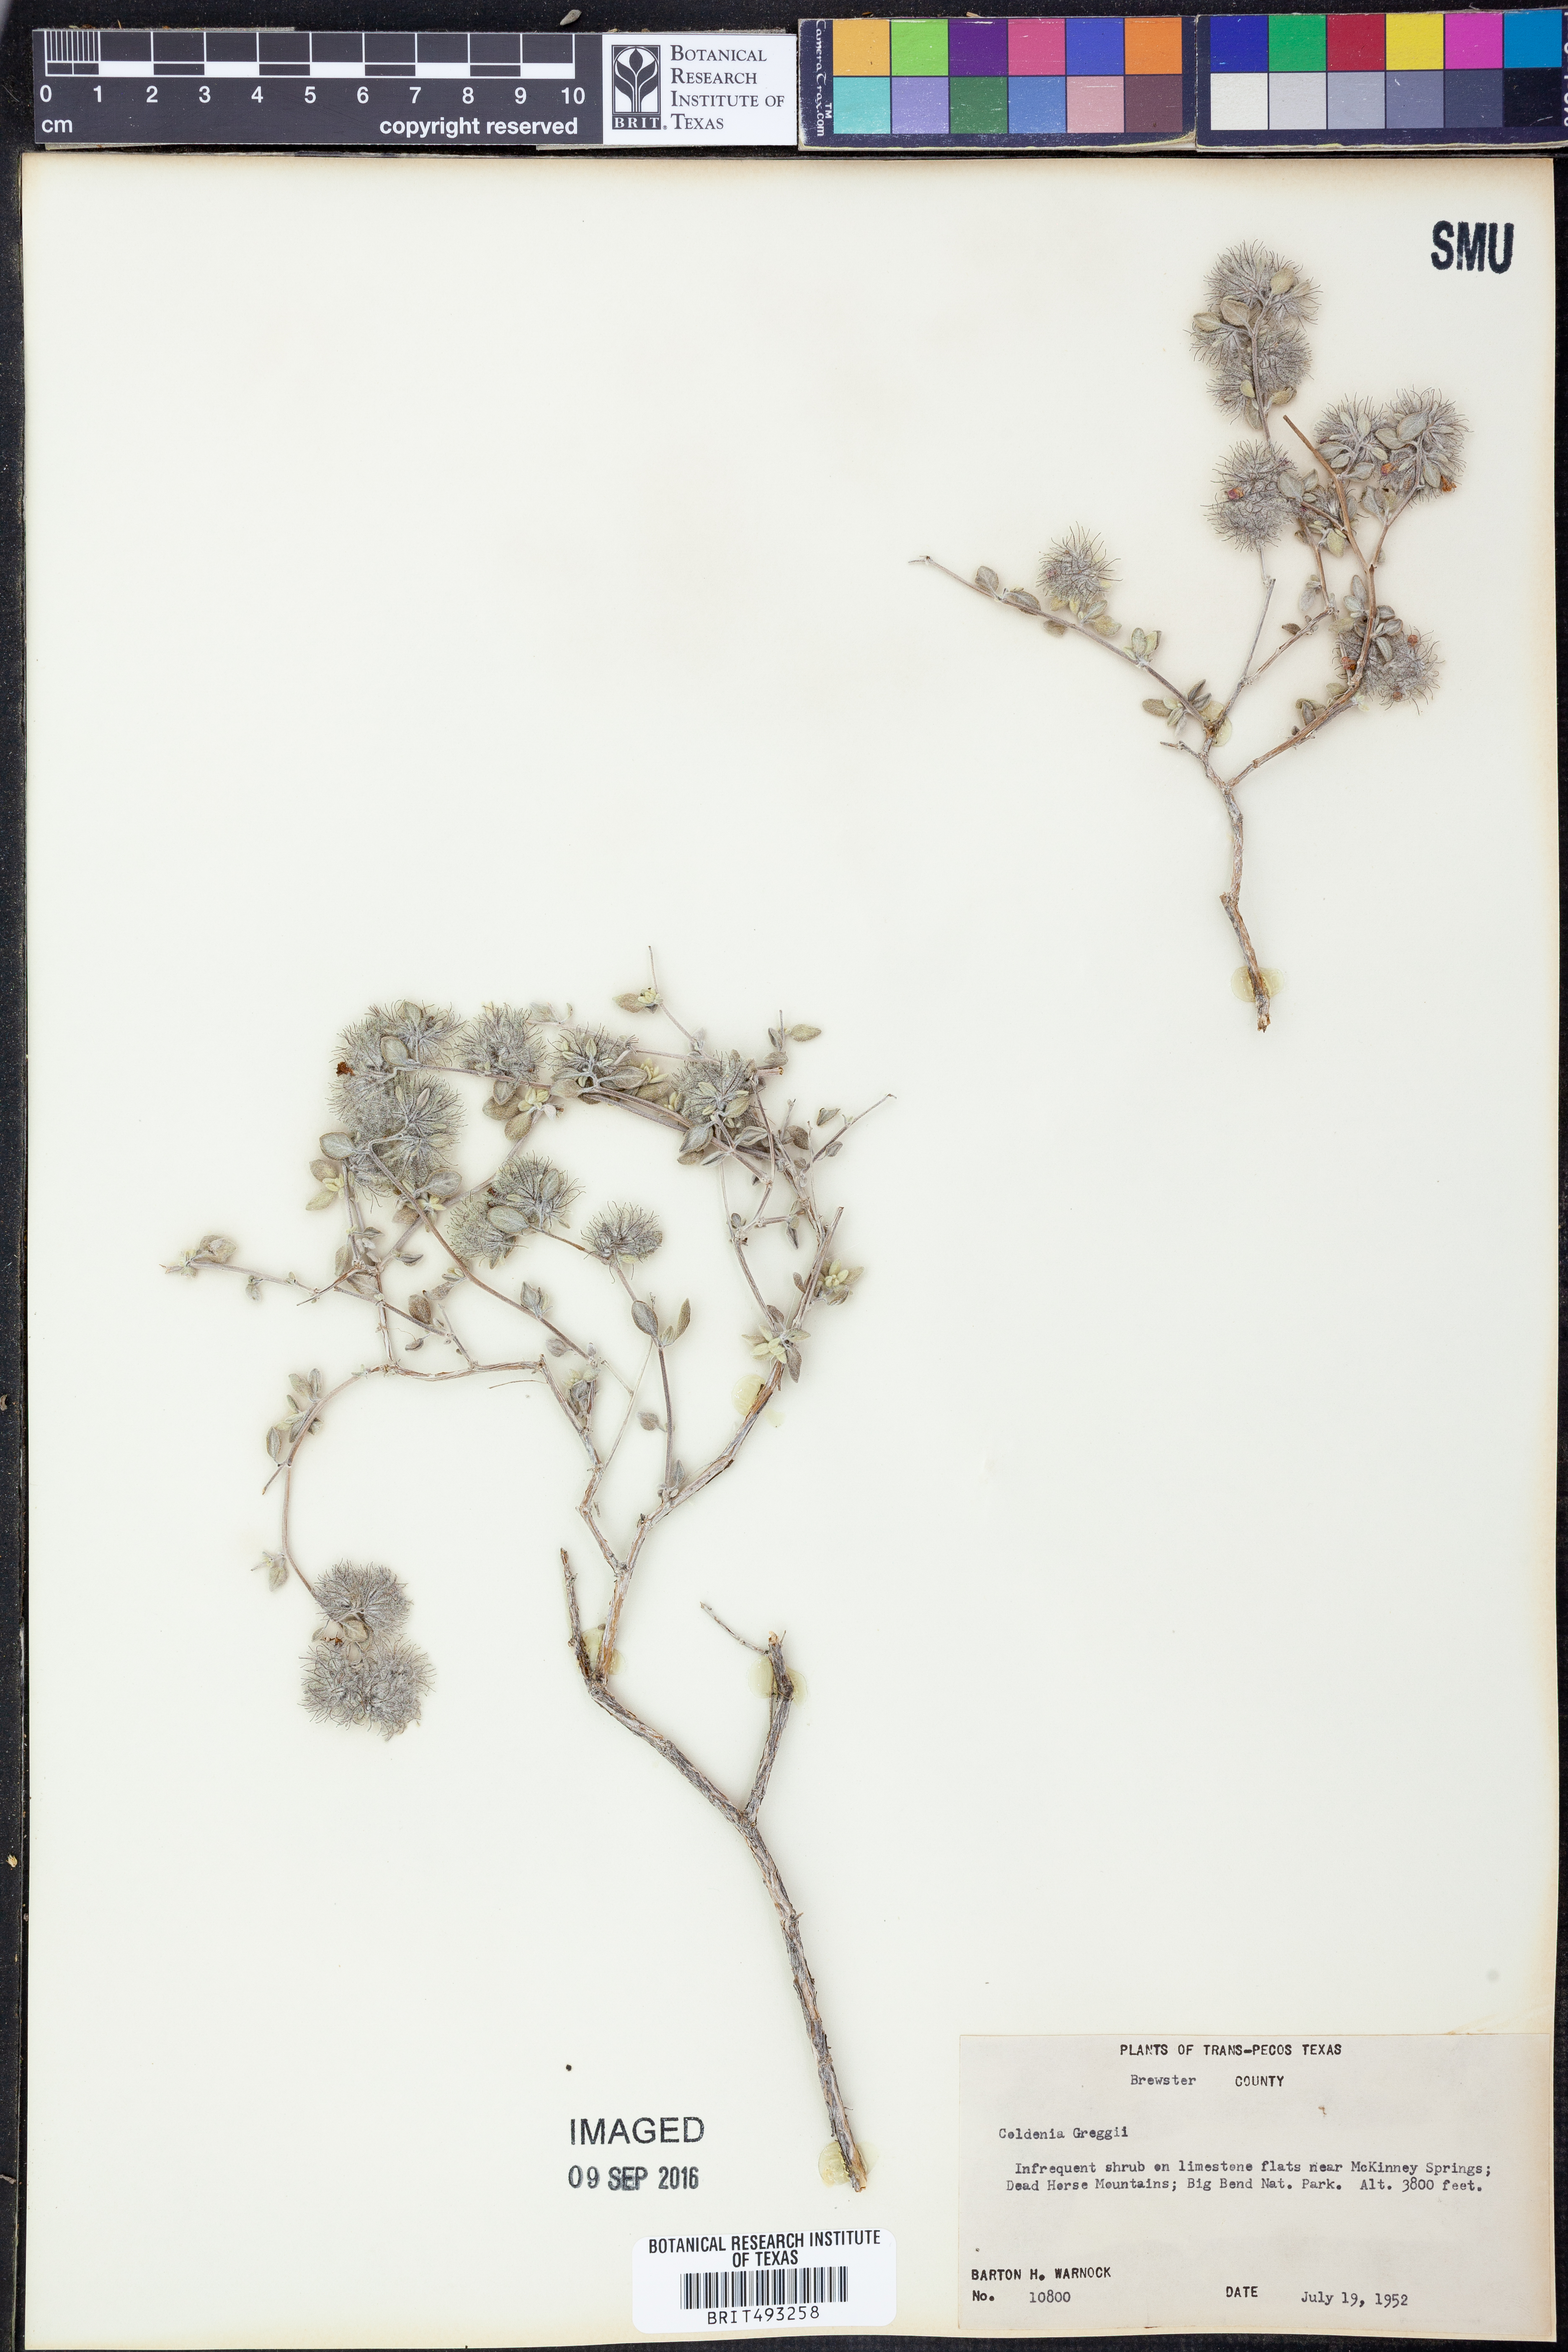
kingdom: Plantae
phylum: Tracheophyta
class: Magnoliopsida
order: Boraginales
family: Ehretiaceae
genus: Tiquilia
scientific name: Tiquilia greggii
